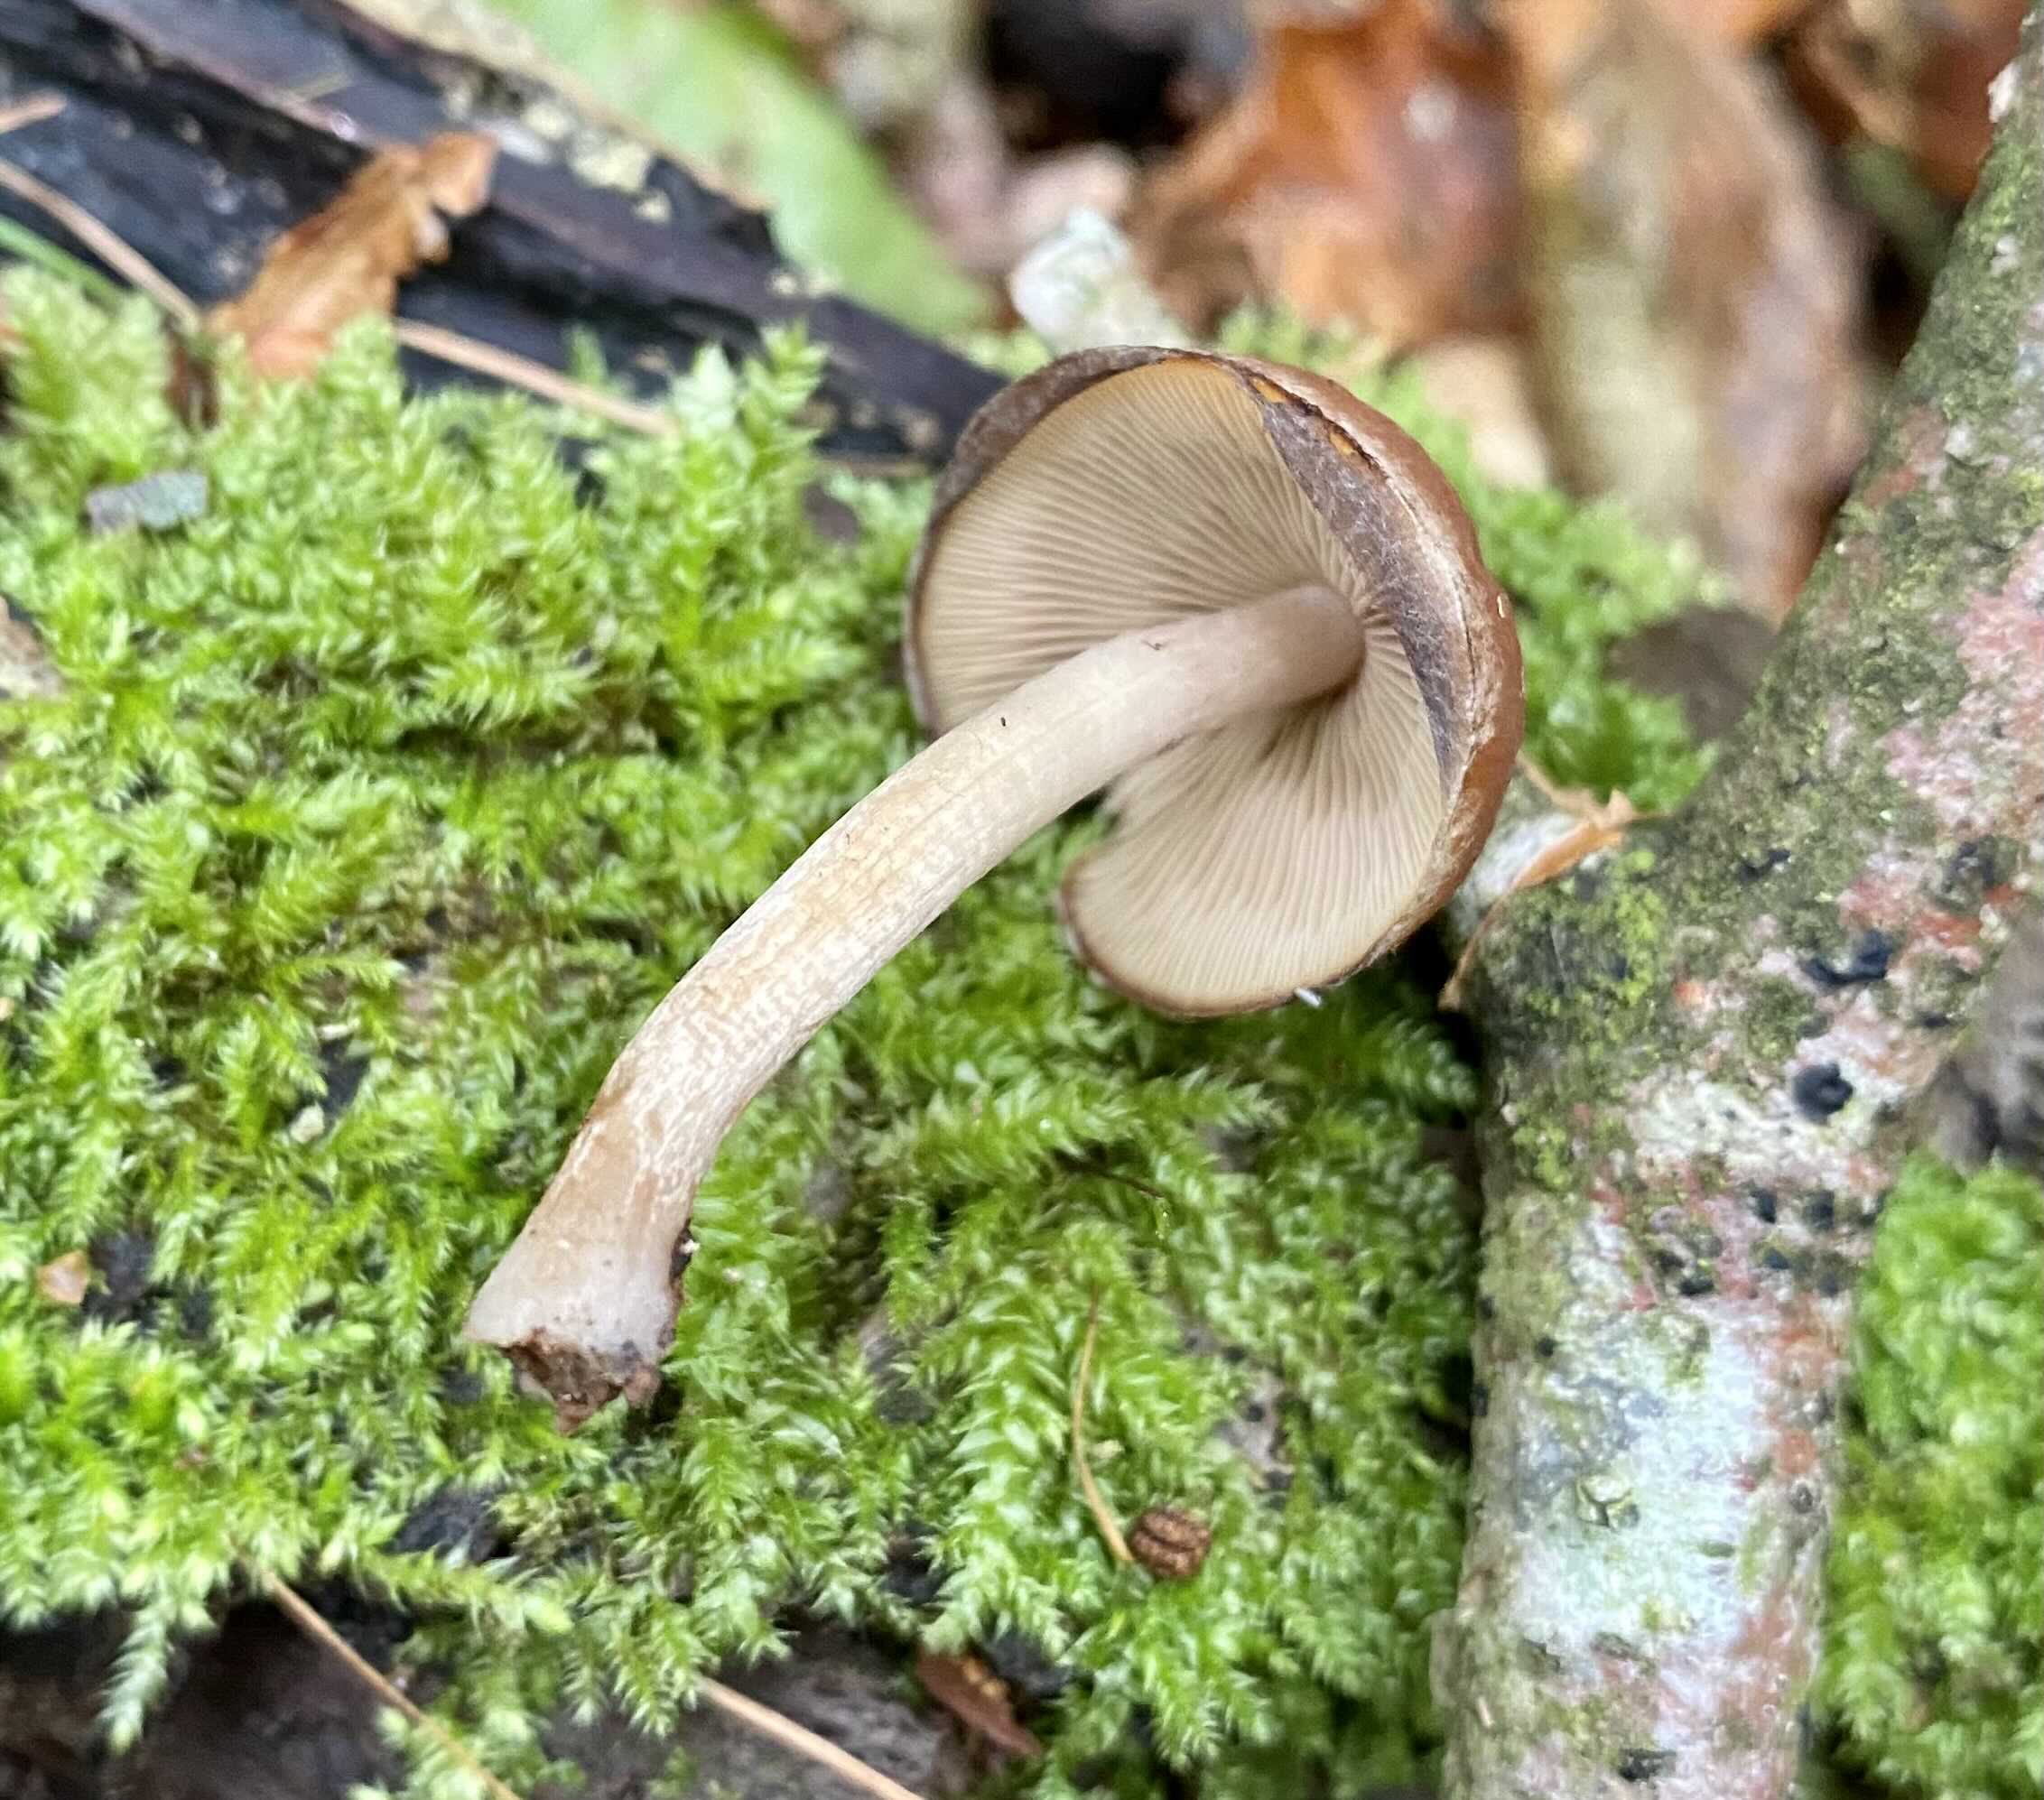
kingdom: Fungi
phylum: Basidiomycota
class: Agaricomycetes
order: Agaricales
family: Psathyrellaceae
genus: Psathyrella
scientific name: Psathyrella piluliformis
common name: lysstokket mørkhat
